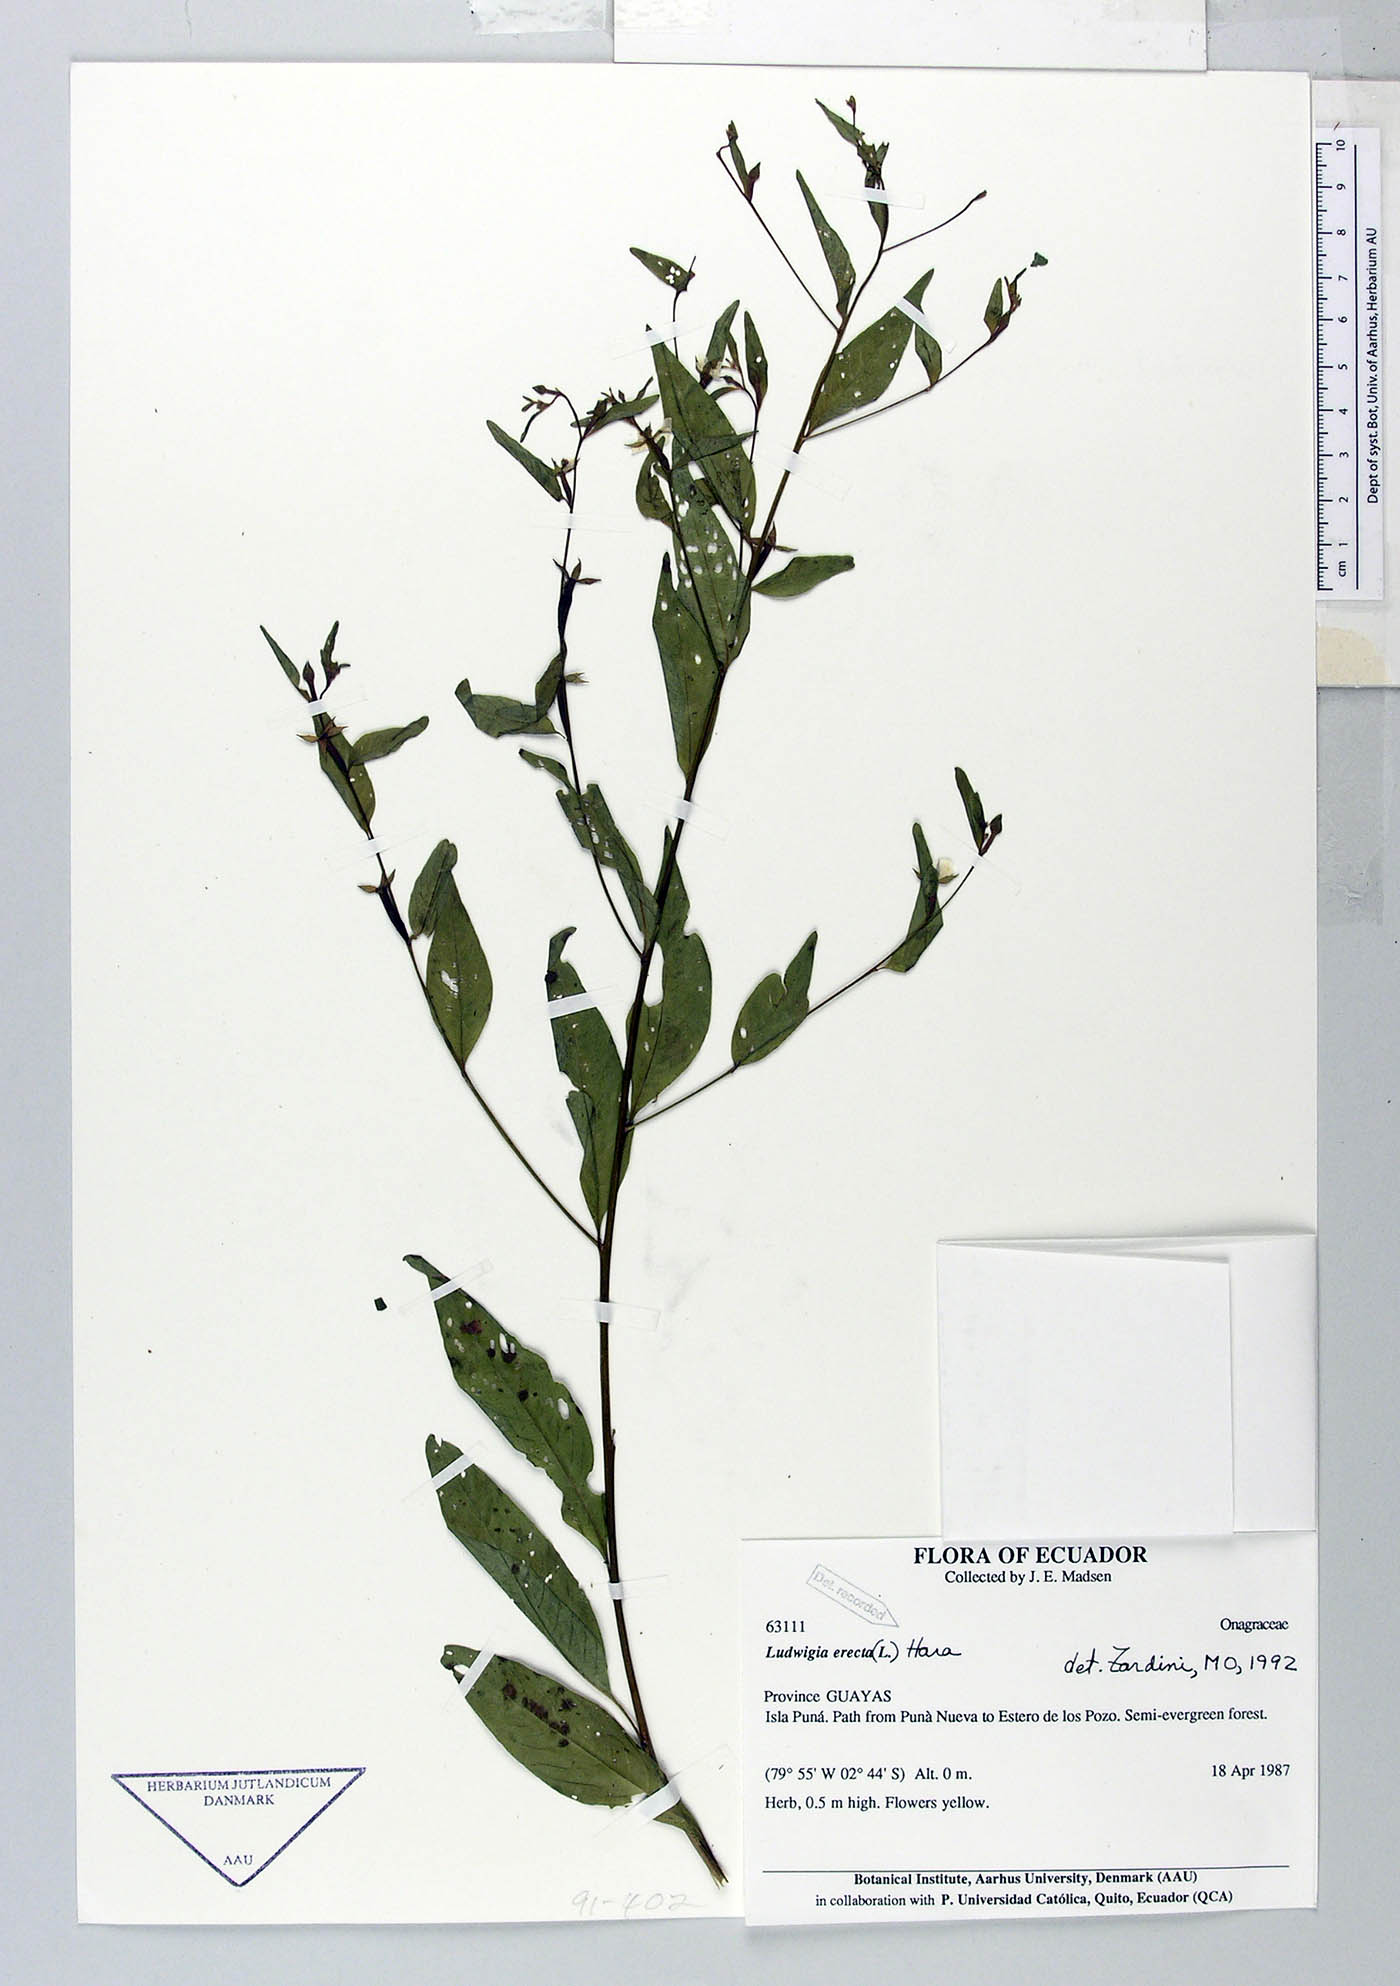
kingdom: Plantae
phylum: Tracheophyta
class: Magnoliopsida
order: Myrtales
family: Onagraceae
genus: Ludwigia
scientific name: Ludwigia erecta
